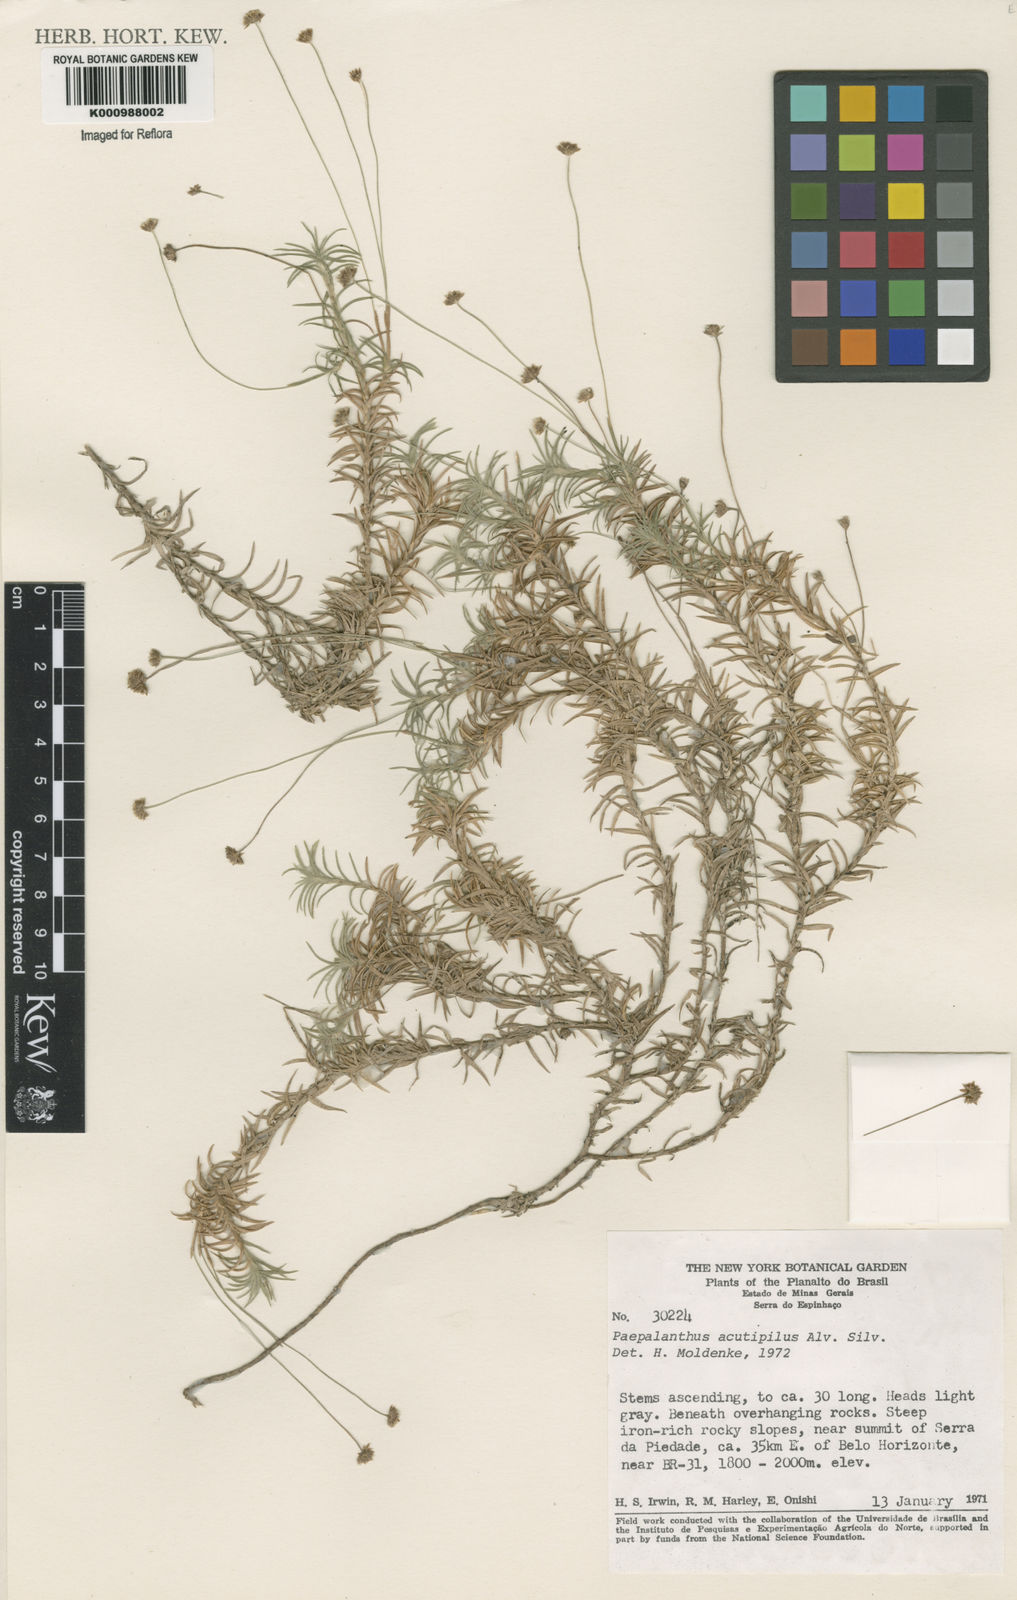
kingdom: Plantae
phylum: Tracheophyta
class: Liliopsida
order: Poales
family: Eriocaulaceae
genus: Paepalanthus
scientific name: Paepalanthus acutipilus
